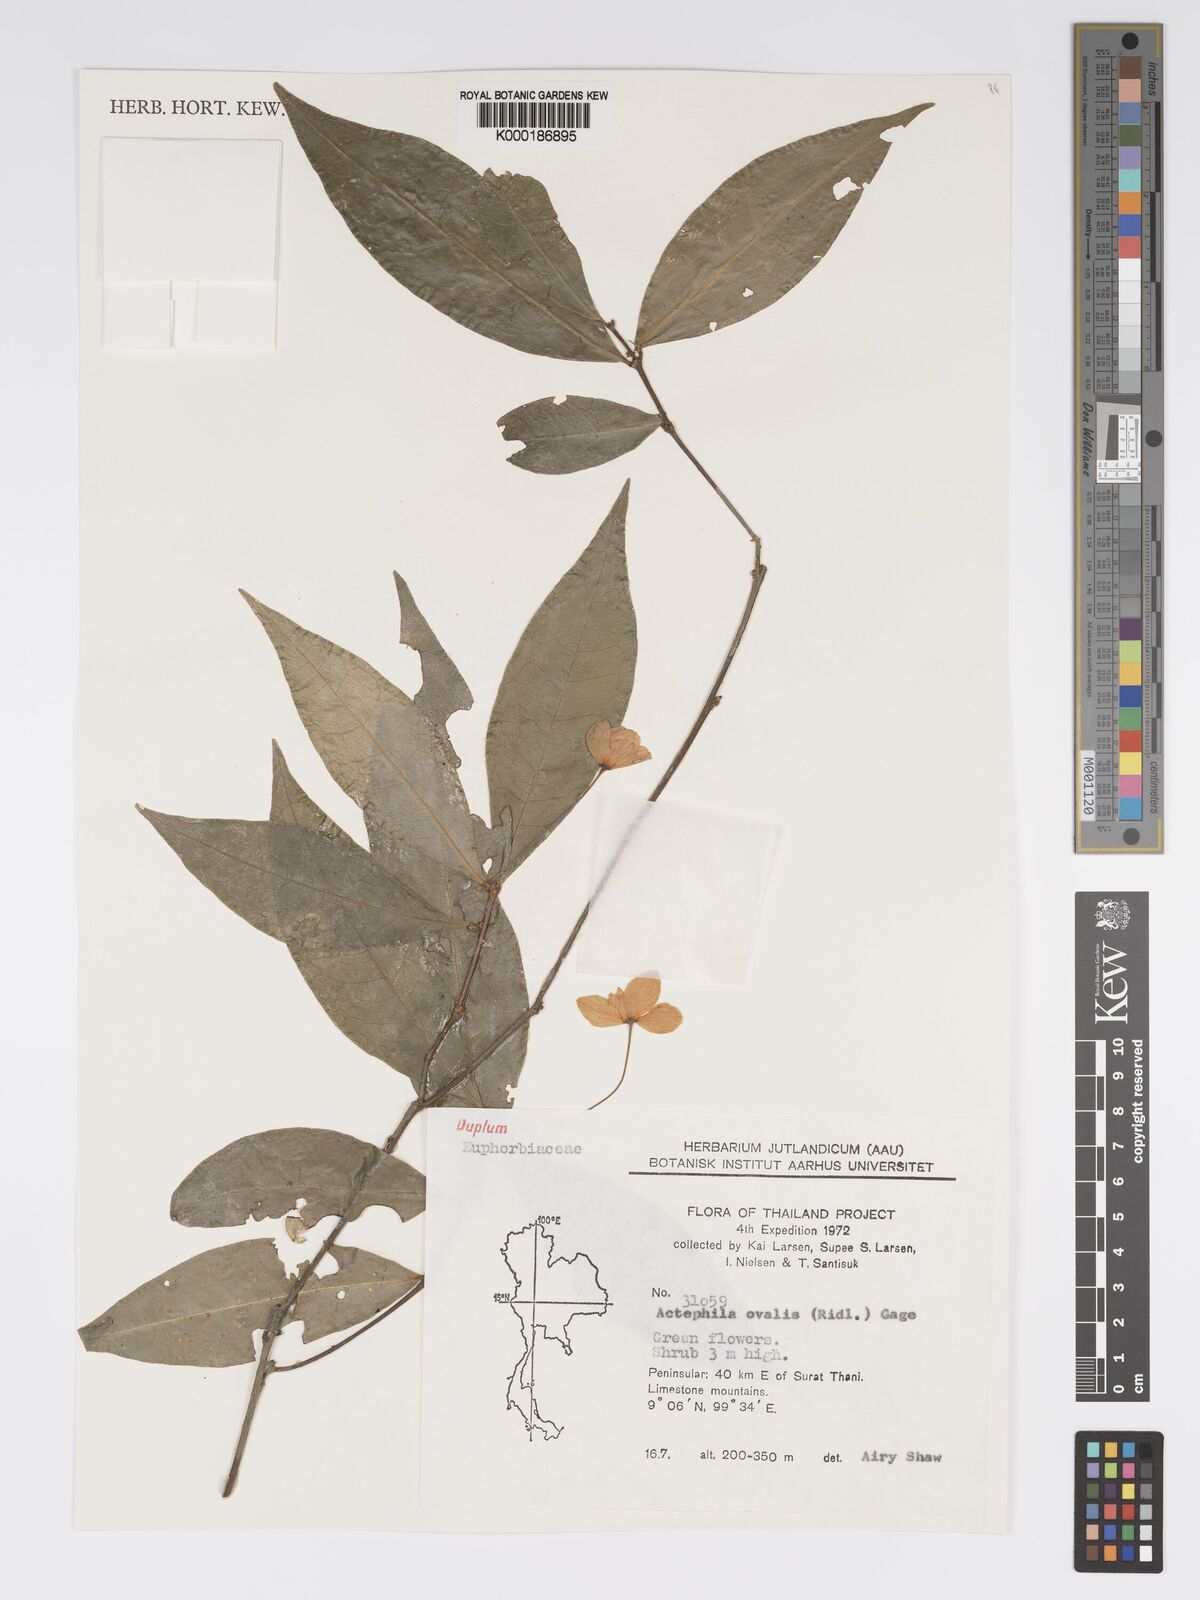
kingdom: Plantae
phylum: Tracheophyta
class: Magnoliopsida
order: Malpighiales
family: Phyllanthaceae
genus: Actephila
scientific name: Actephila ovalis
